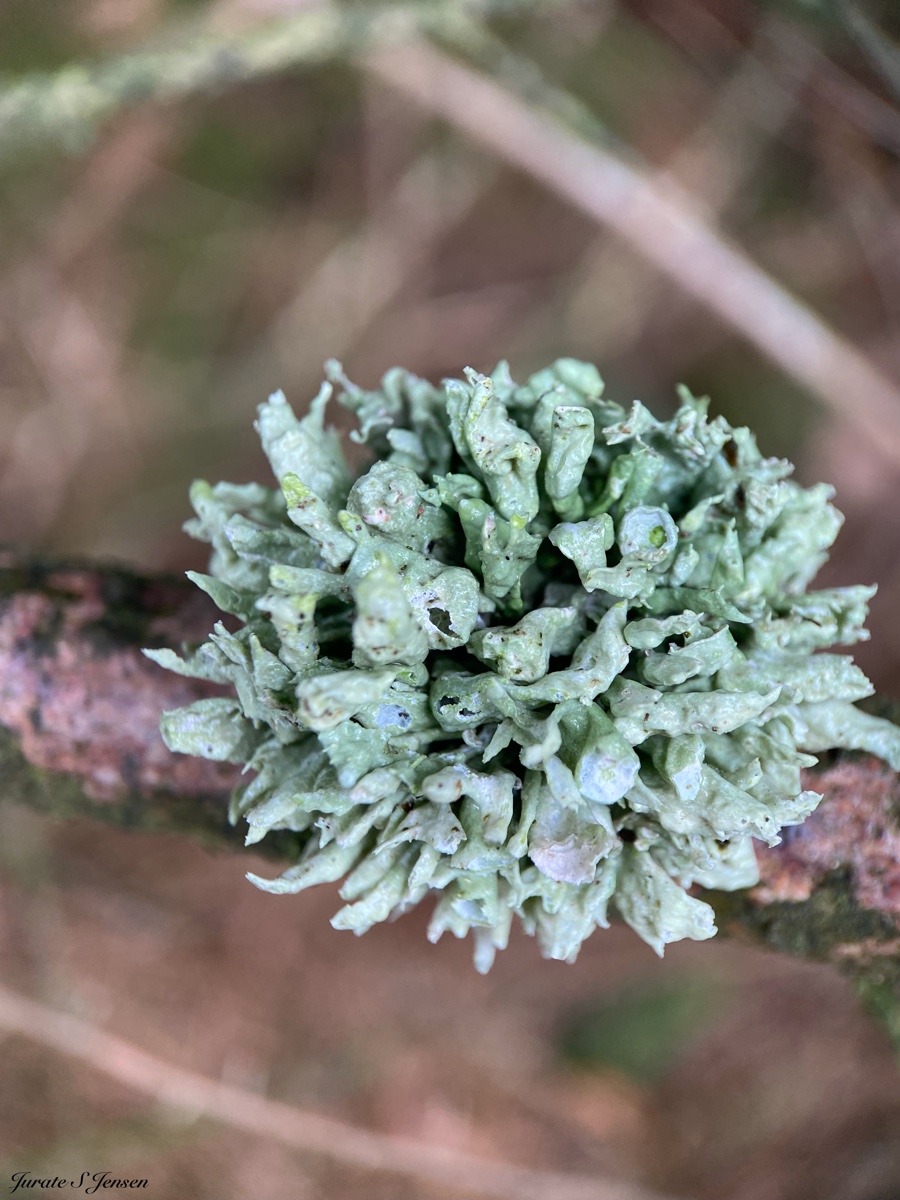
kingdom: Fungi
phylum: Ascomycota
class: Lecanoromycetes
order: Lecanorales
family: Ramalinaceae
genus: Ramalina
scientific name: Ramalina fastigiata
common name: tue-grenlav
